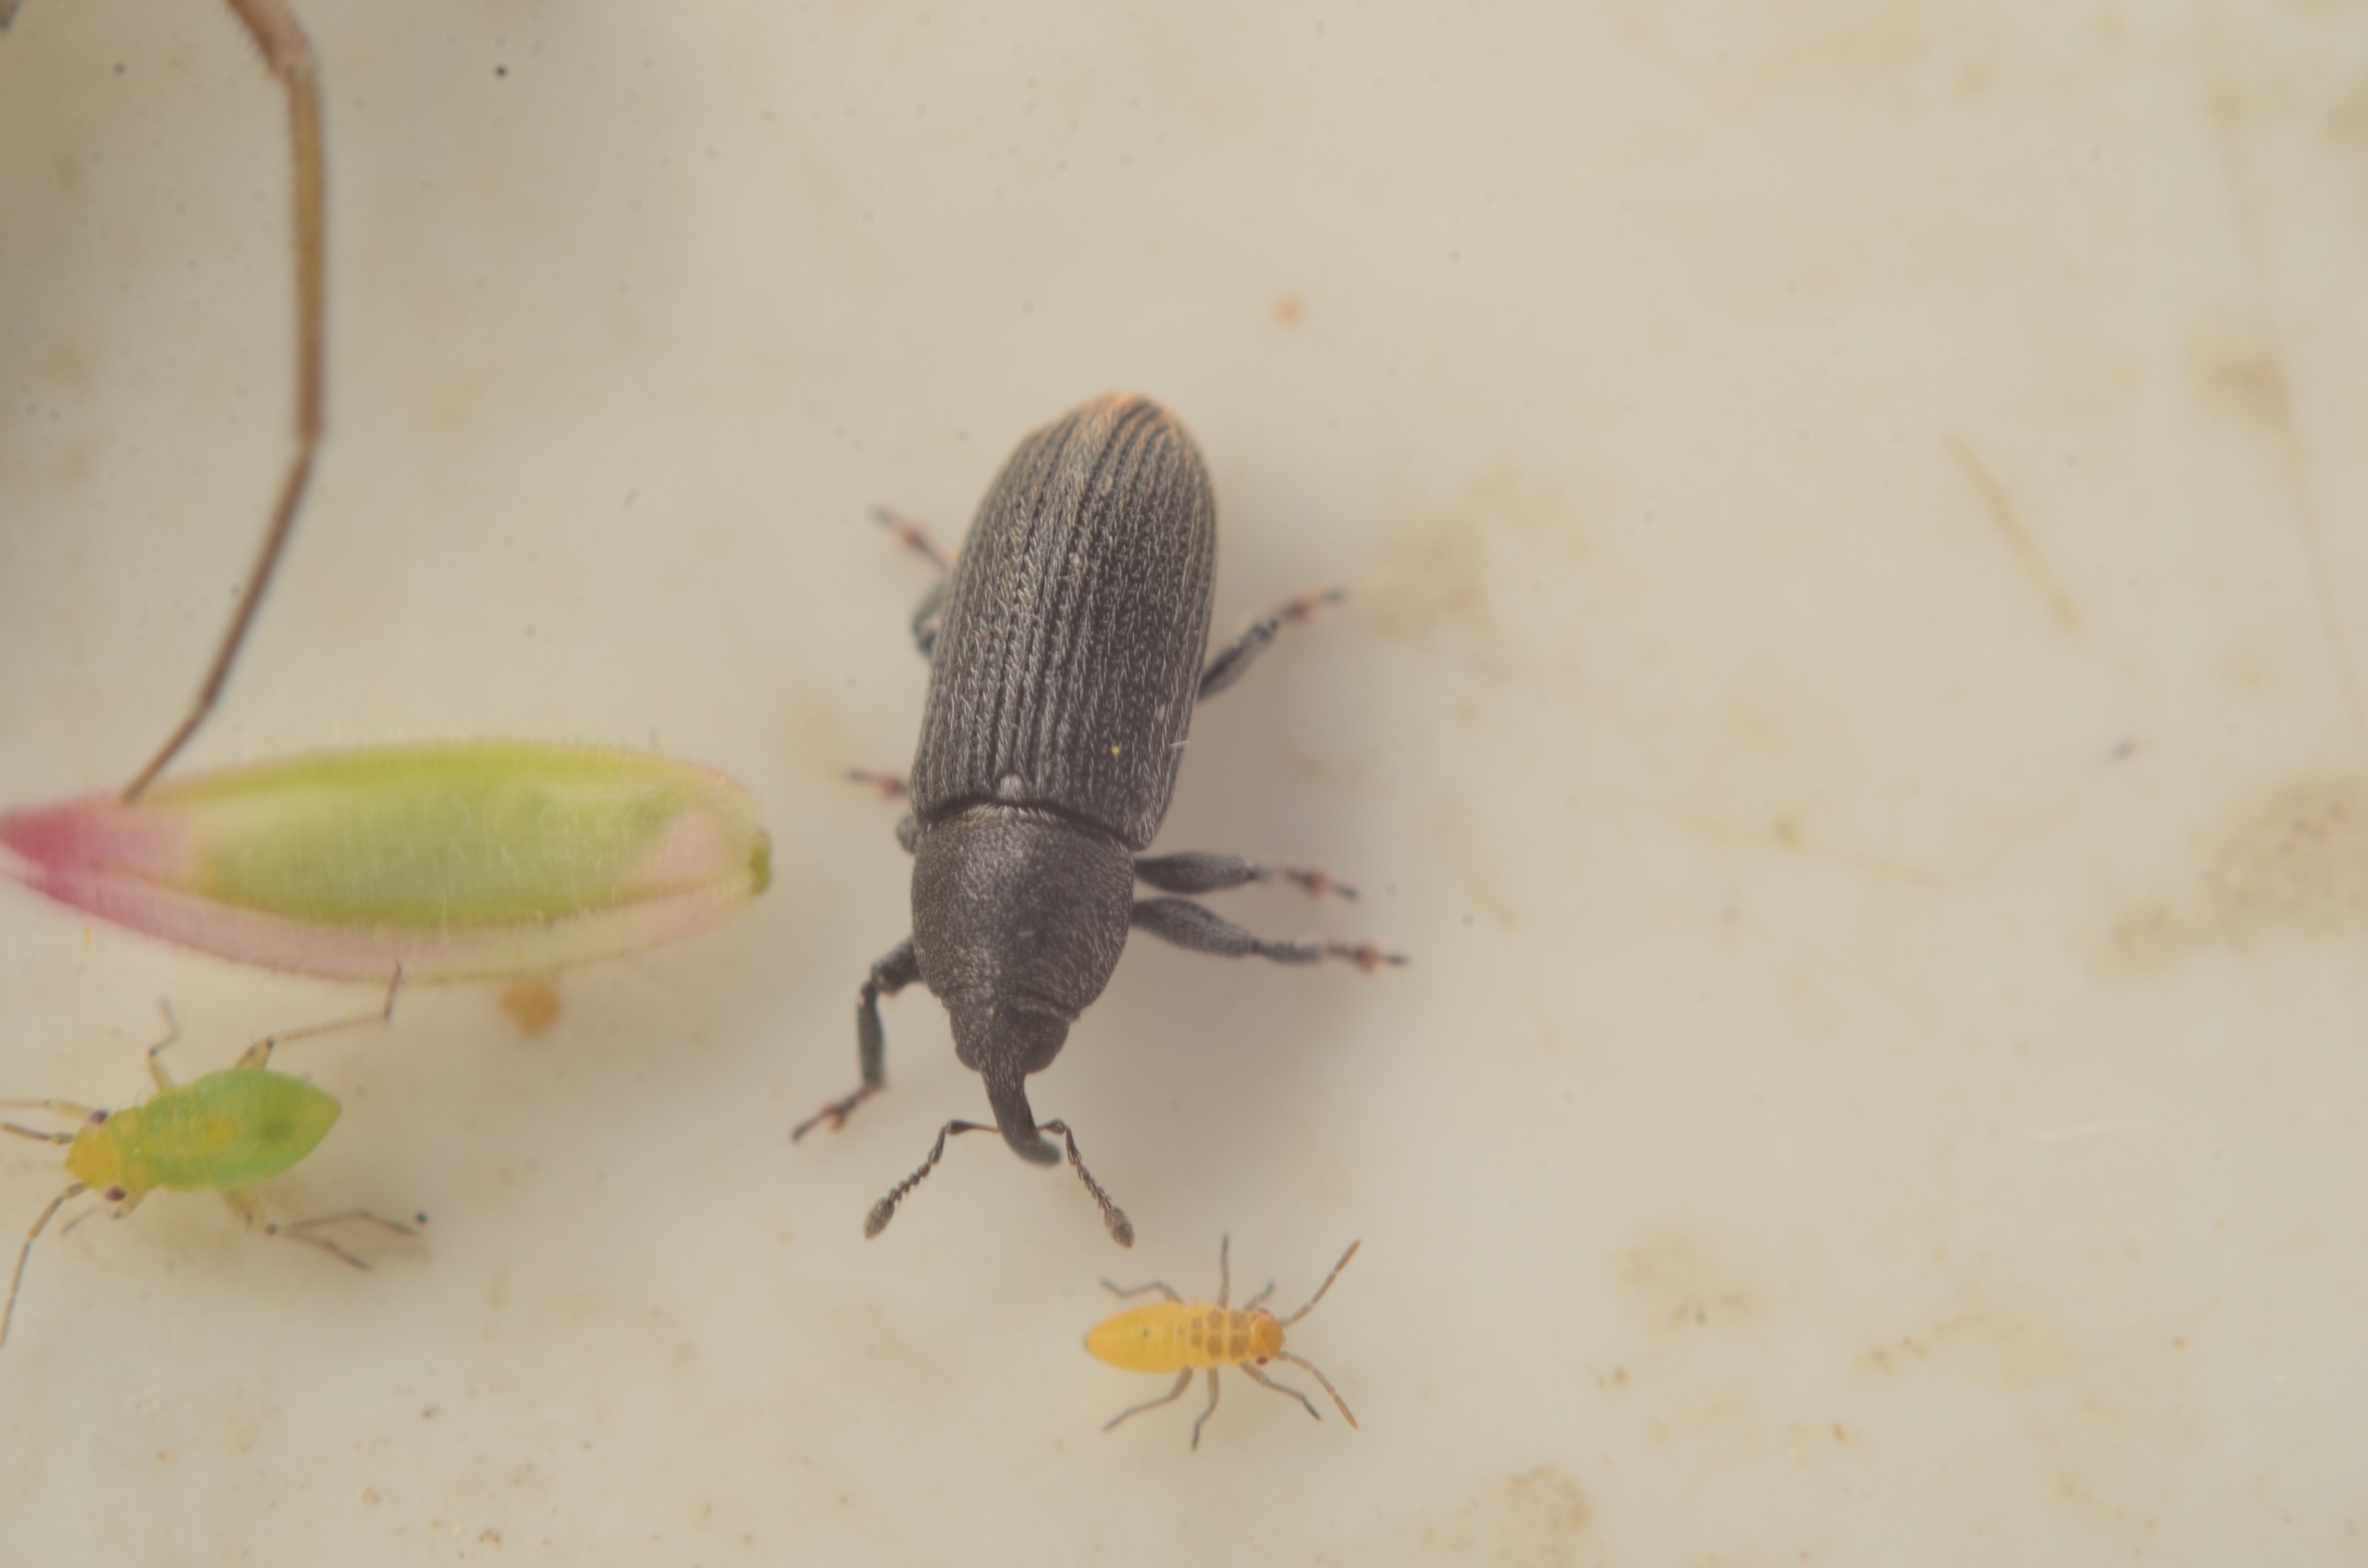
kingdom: Animalia
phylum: Arthropoda
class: Insecta
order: Coleoptera
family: Curculionidae
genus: Mecinus
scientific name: Mecinus pyraster
